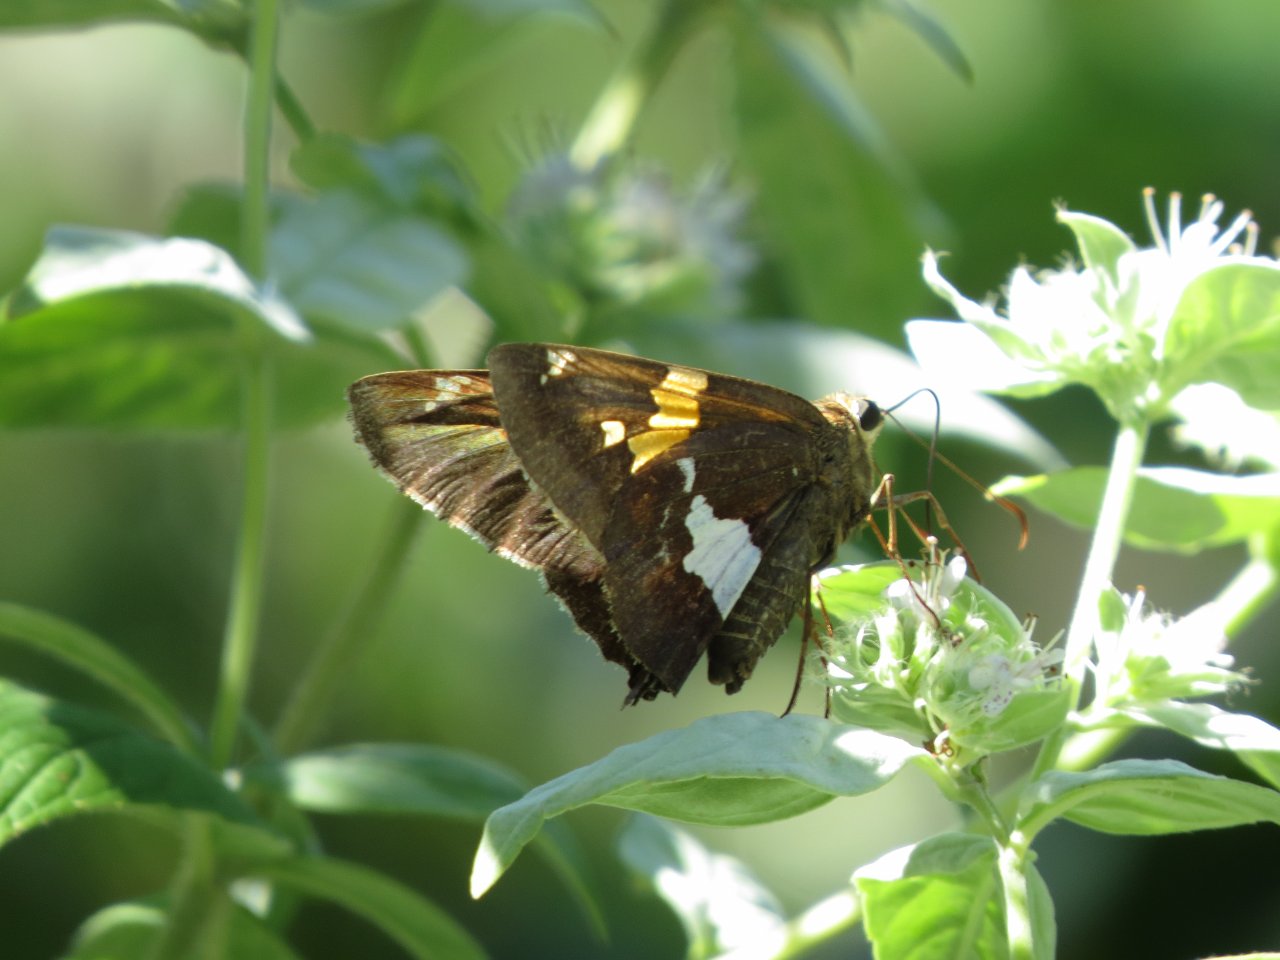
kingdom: Animalia
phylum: Arthropoda
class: Insecta
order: Lepidoptera
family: Hesperiidae
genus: Epargyreus
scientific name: Epargyreus clarus
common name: Silver-spotted Skipper
